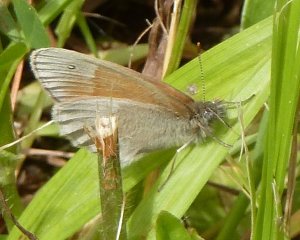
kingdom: Animalia
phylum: Arthropoda
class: Insecta
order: Lepidoptera
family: Nymphalidae
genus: Coenonympha
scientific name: Coenonympha tullia
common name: Large Heath
